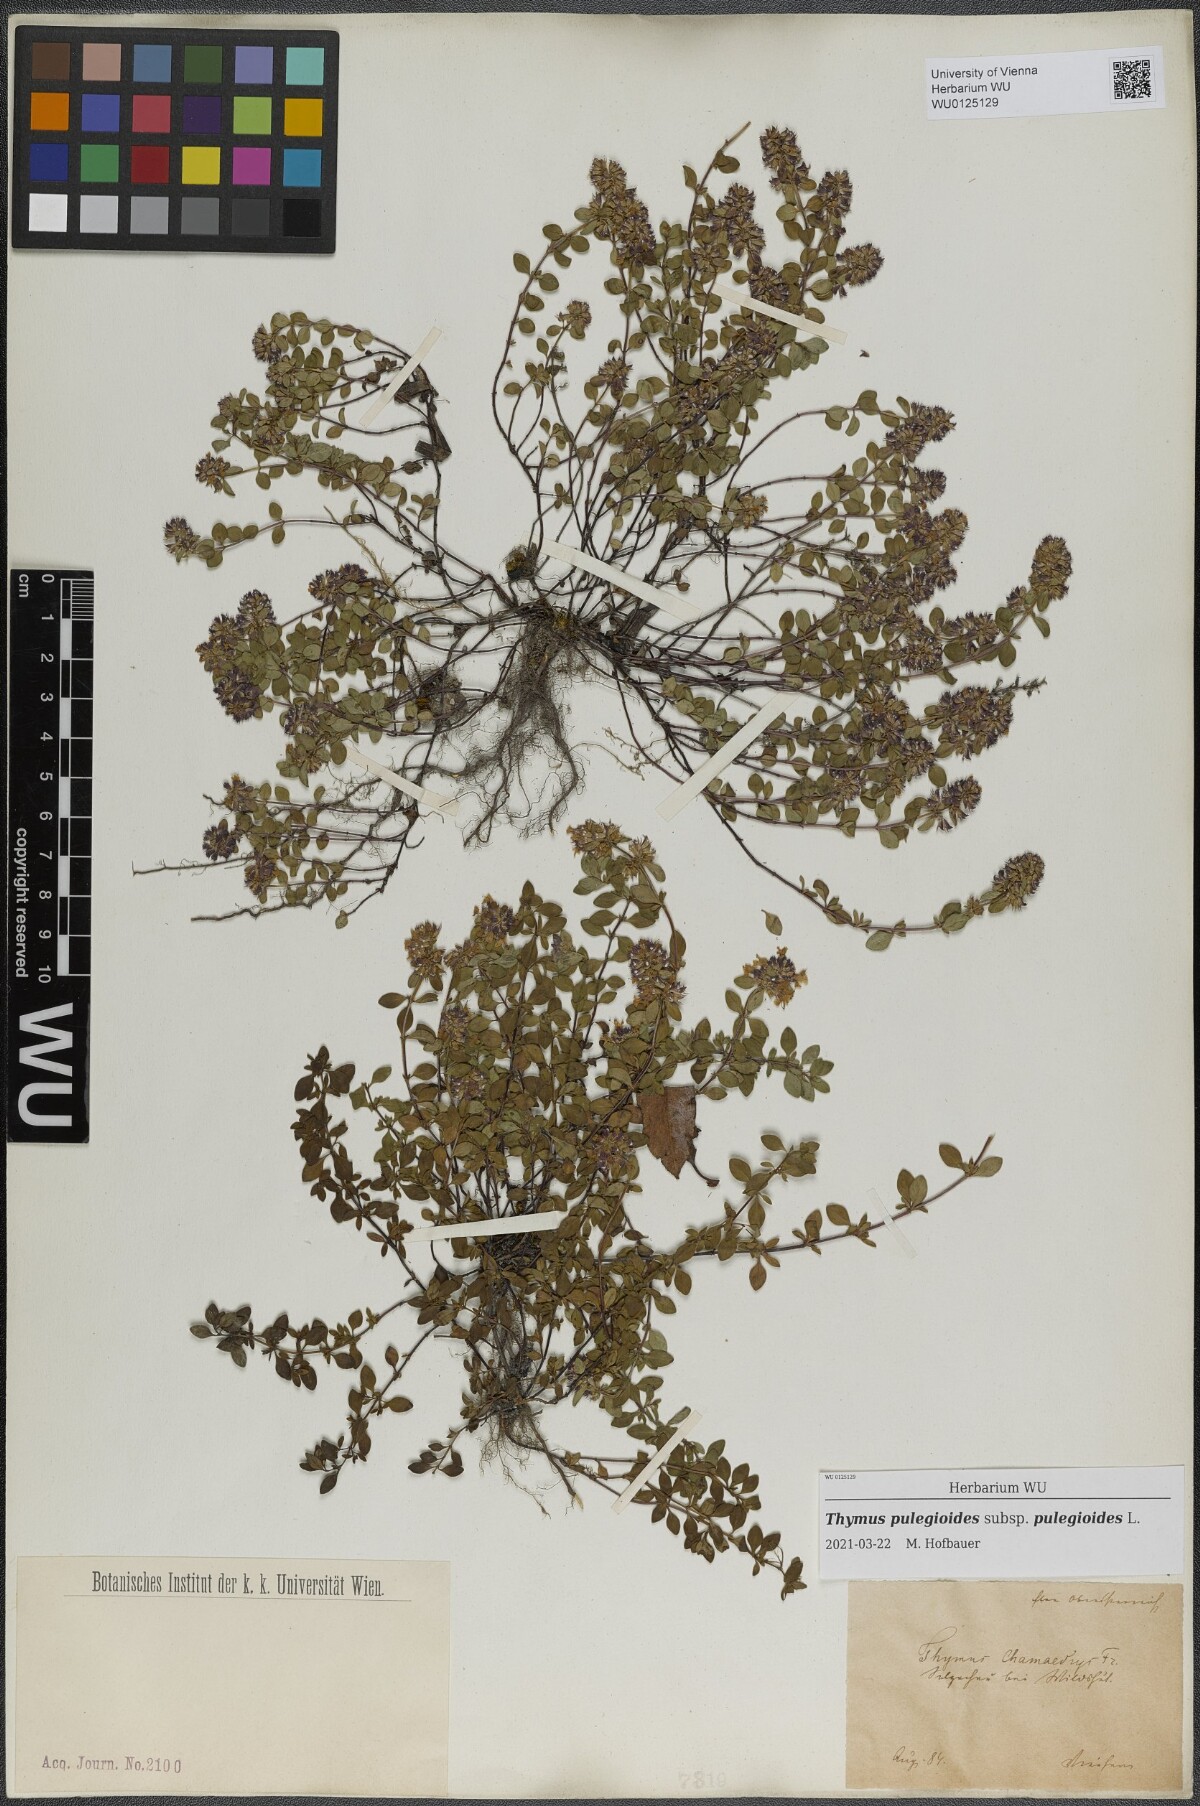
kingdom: Plantae
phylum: Tracheophyta
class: Magnoliopsida
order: Lamiales
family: Lamiaceae
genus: Thymus
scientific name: Thymus pulegioides
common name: Large thyme
